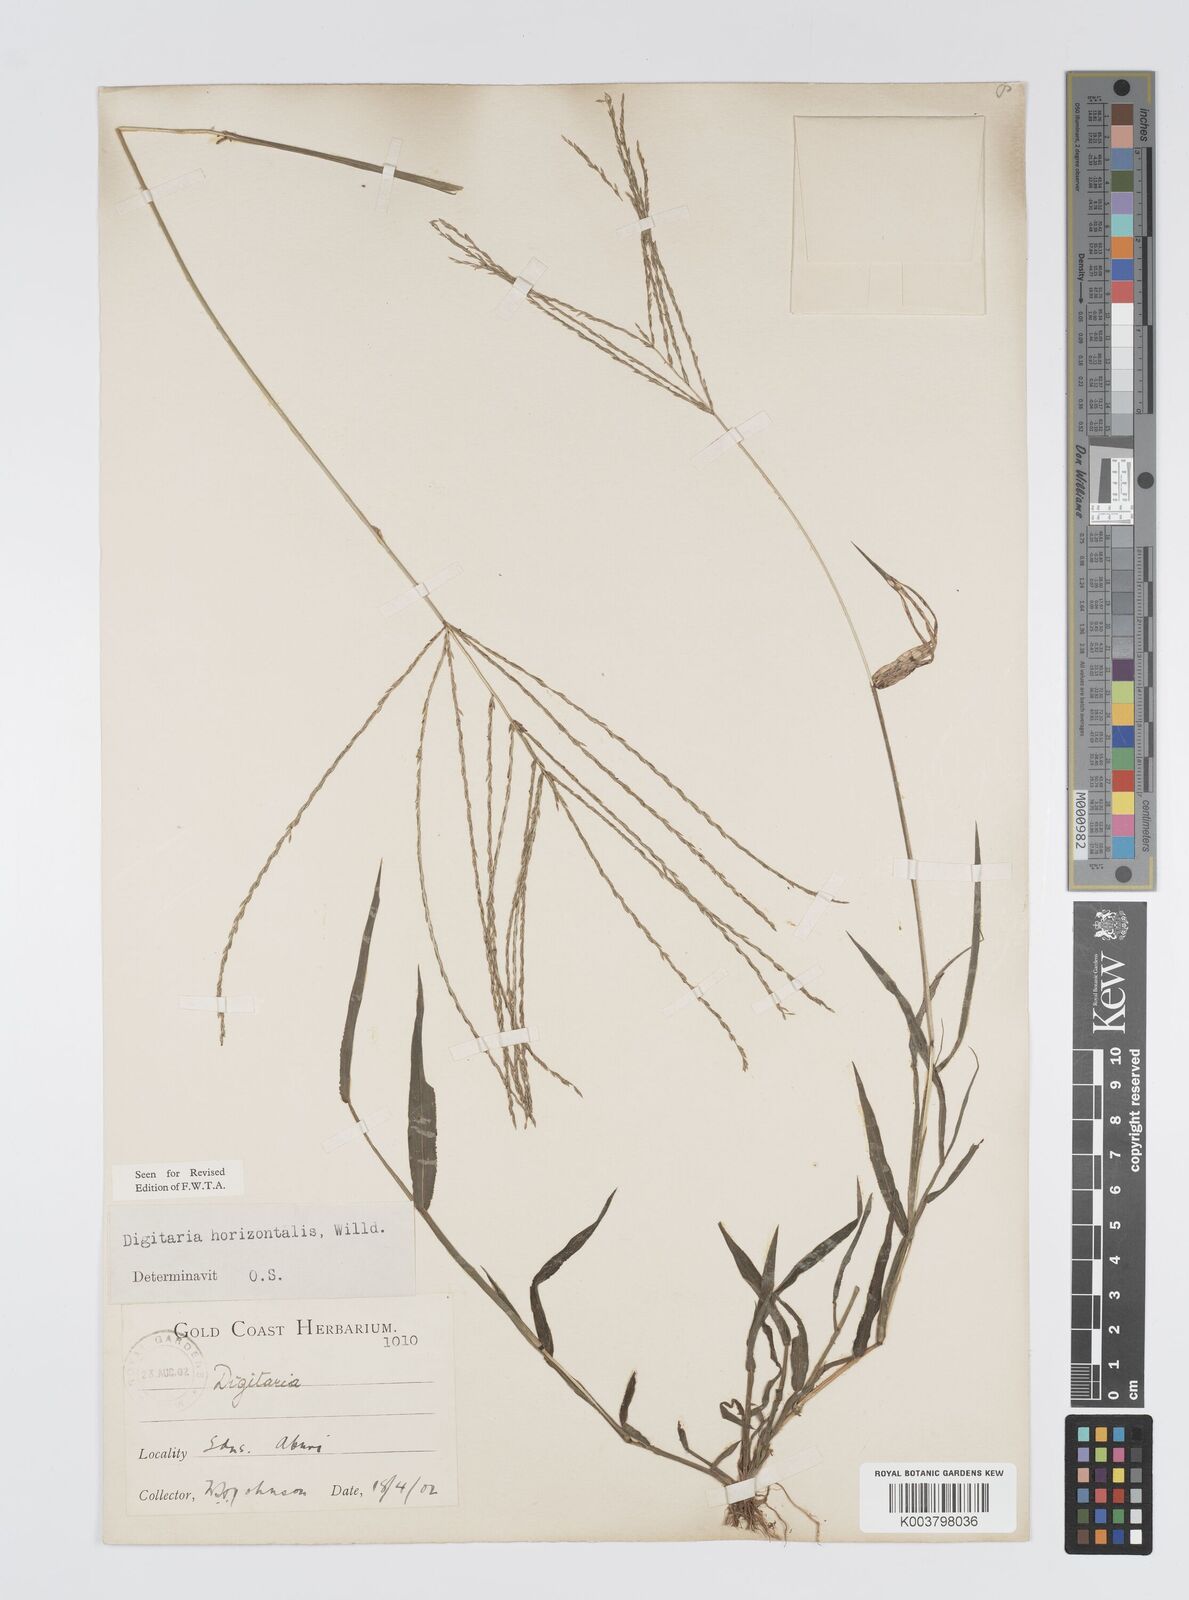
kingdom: Plantae
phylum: Tracheophyta
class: Liliopsida
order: Poales
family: Poaceae
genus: Digitaria
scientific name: Digitaria horizontalis
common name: Jamaican crabgrass
